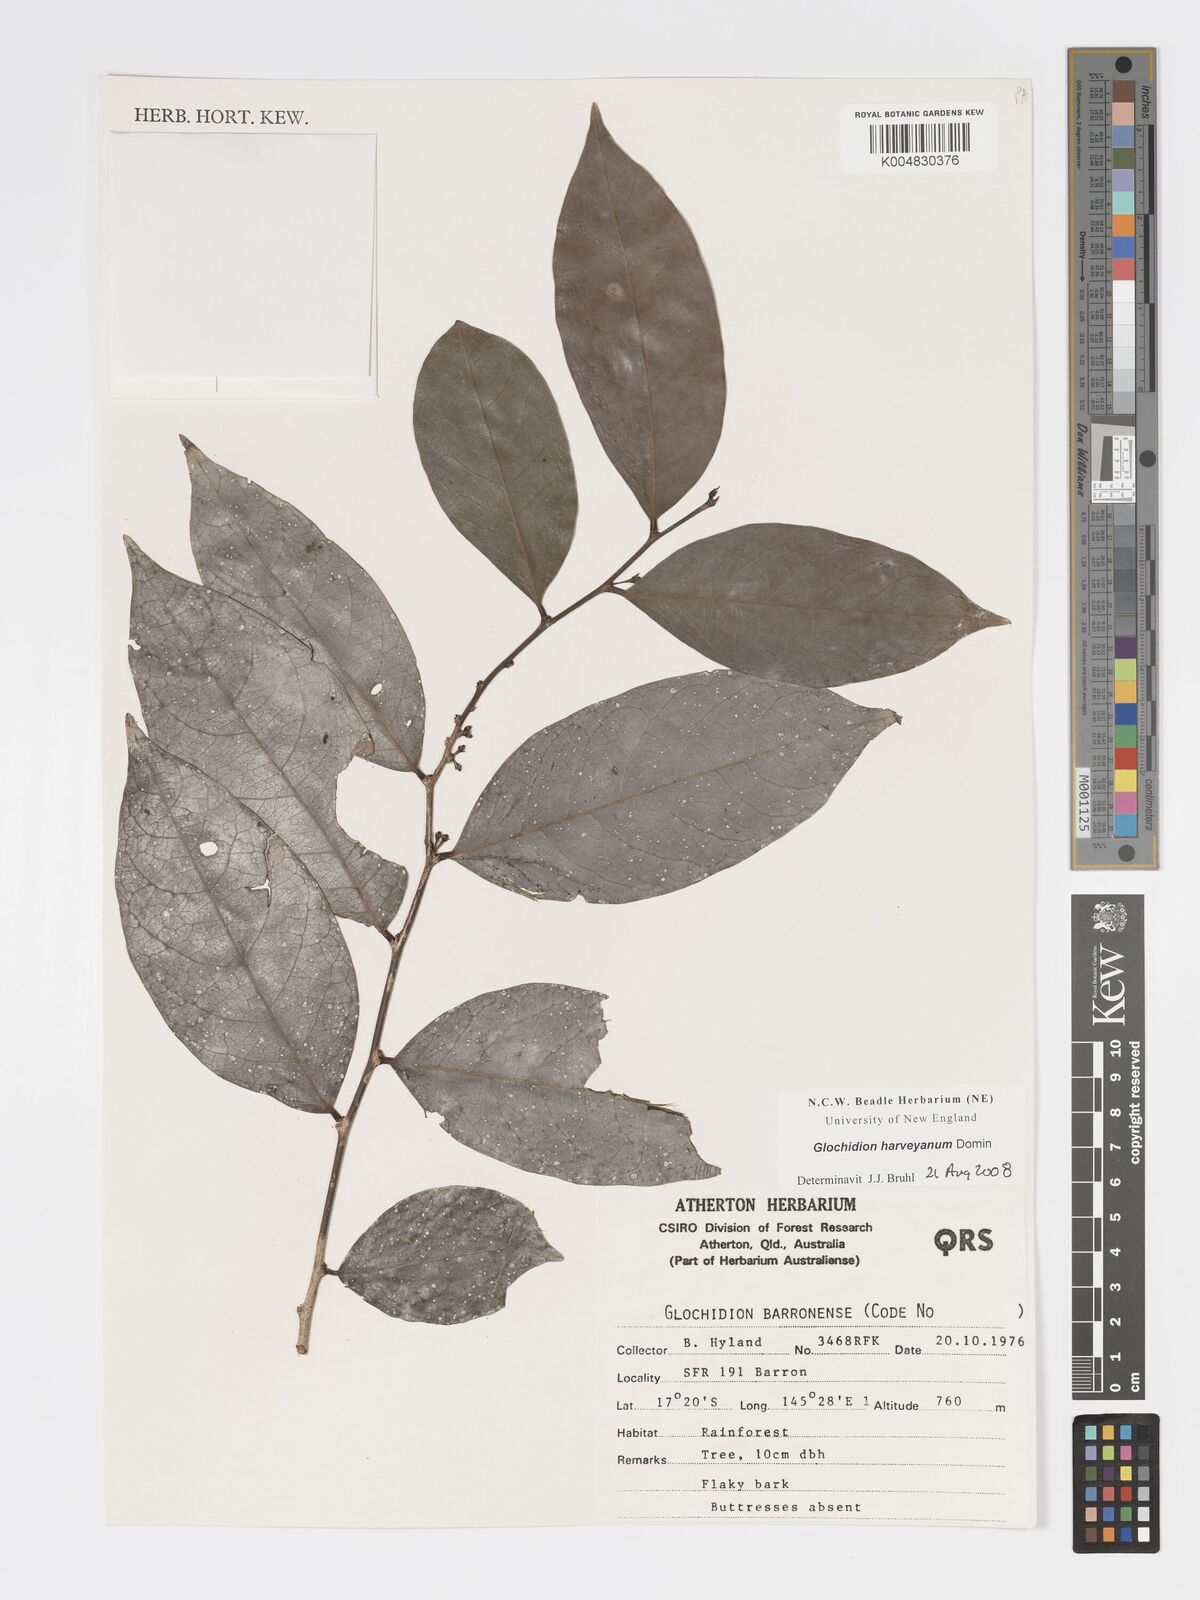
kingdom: Plantae
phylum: Tracheophyta
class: Magnoliopsida
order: Malpighiales
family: Phyllanthaceae
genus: Glochidion
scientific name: Glochidion harveyanum
